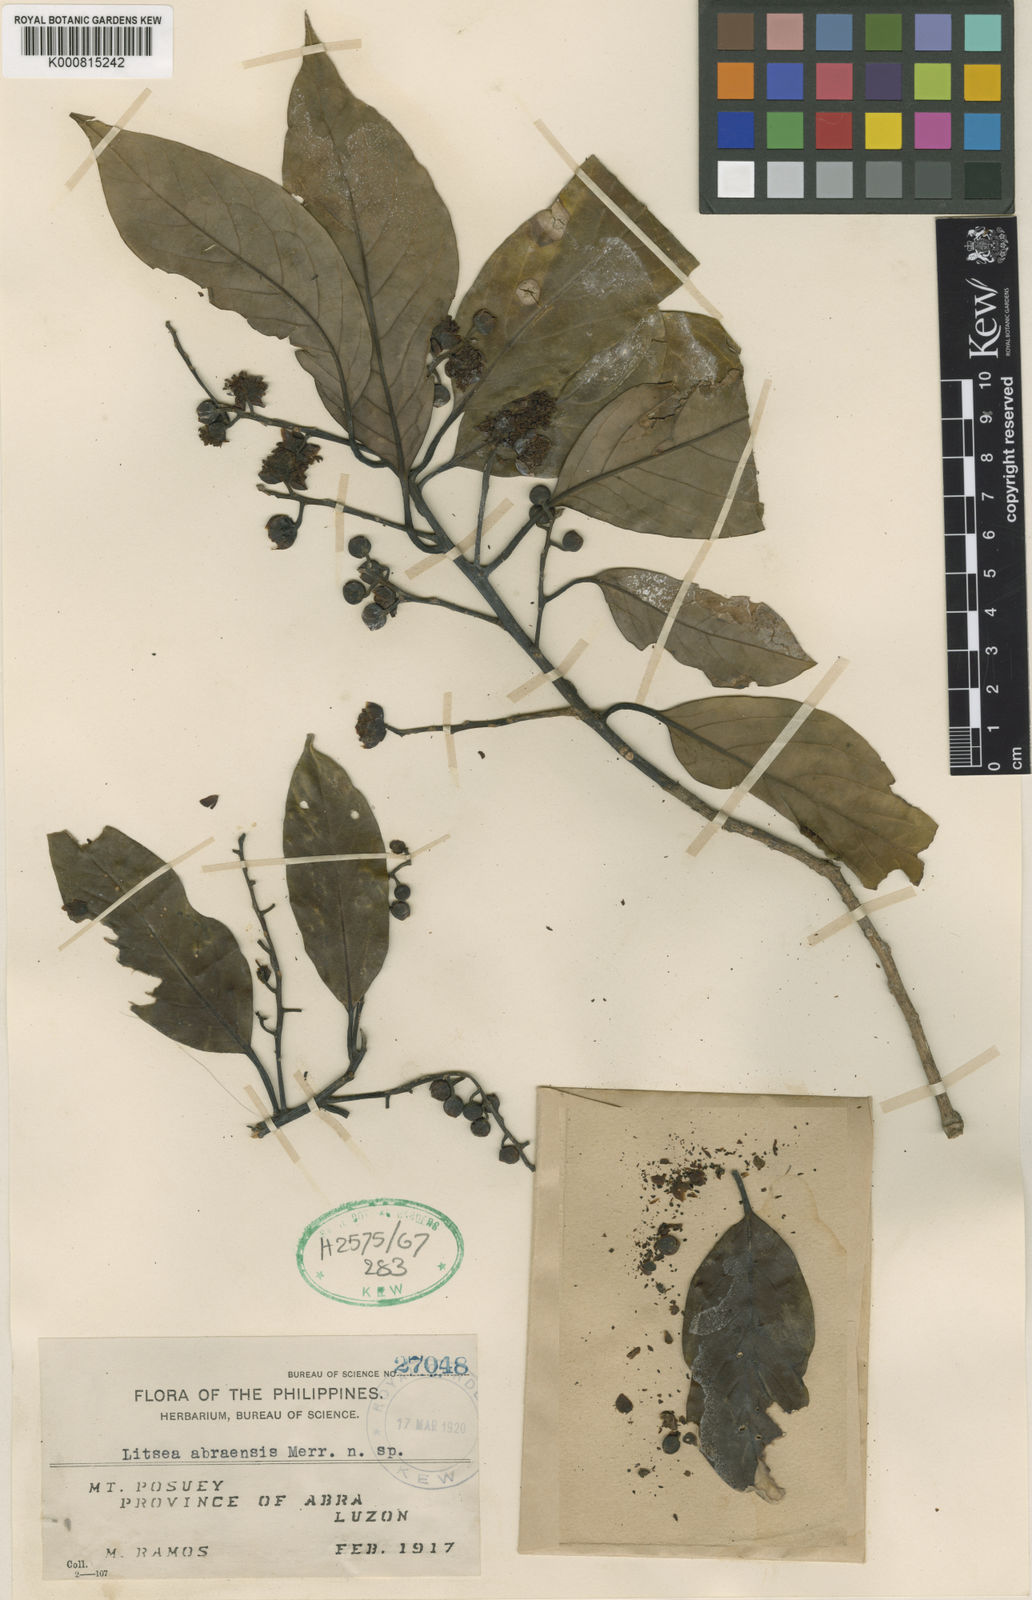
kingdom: Plantae
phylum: Tracheophyta
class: Magnoliopsida
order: Laurales
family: Lauraceae
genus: Litsea
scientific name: Litsea plateifolia
